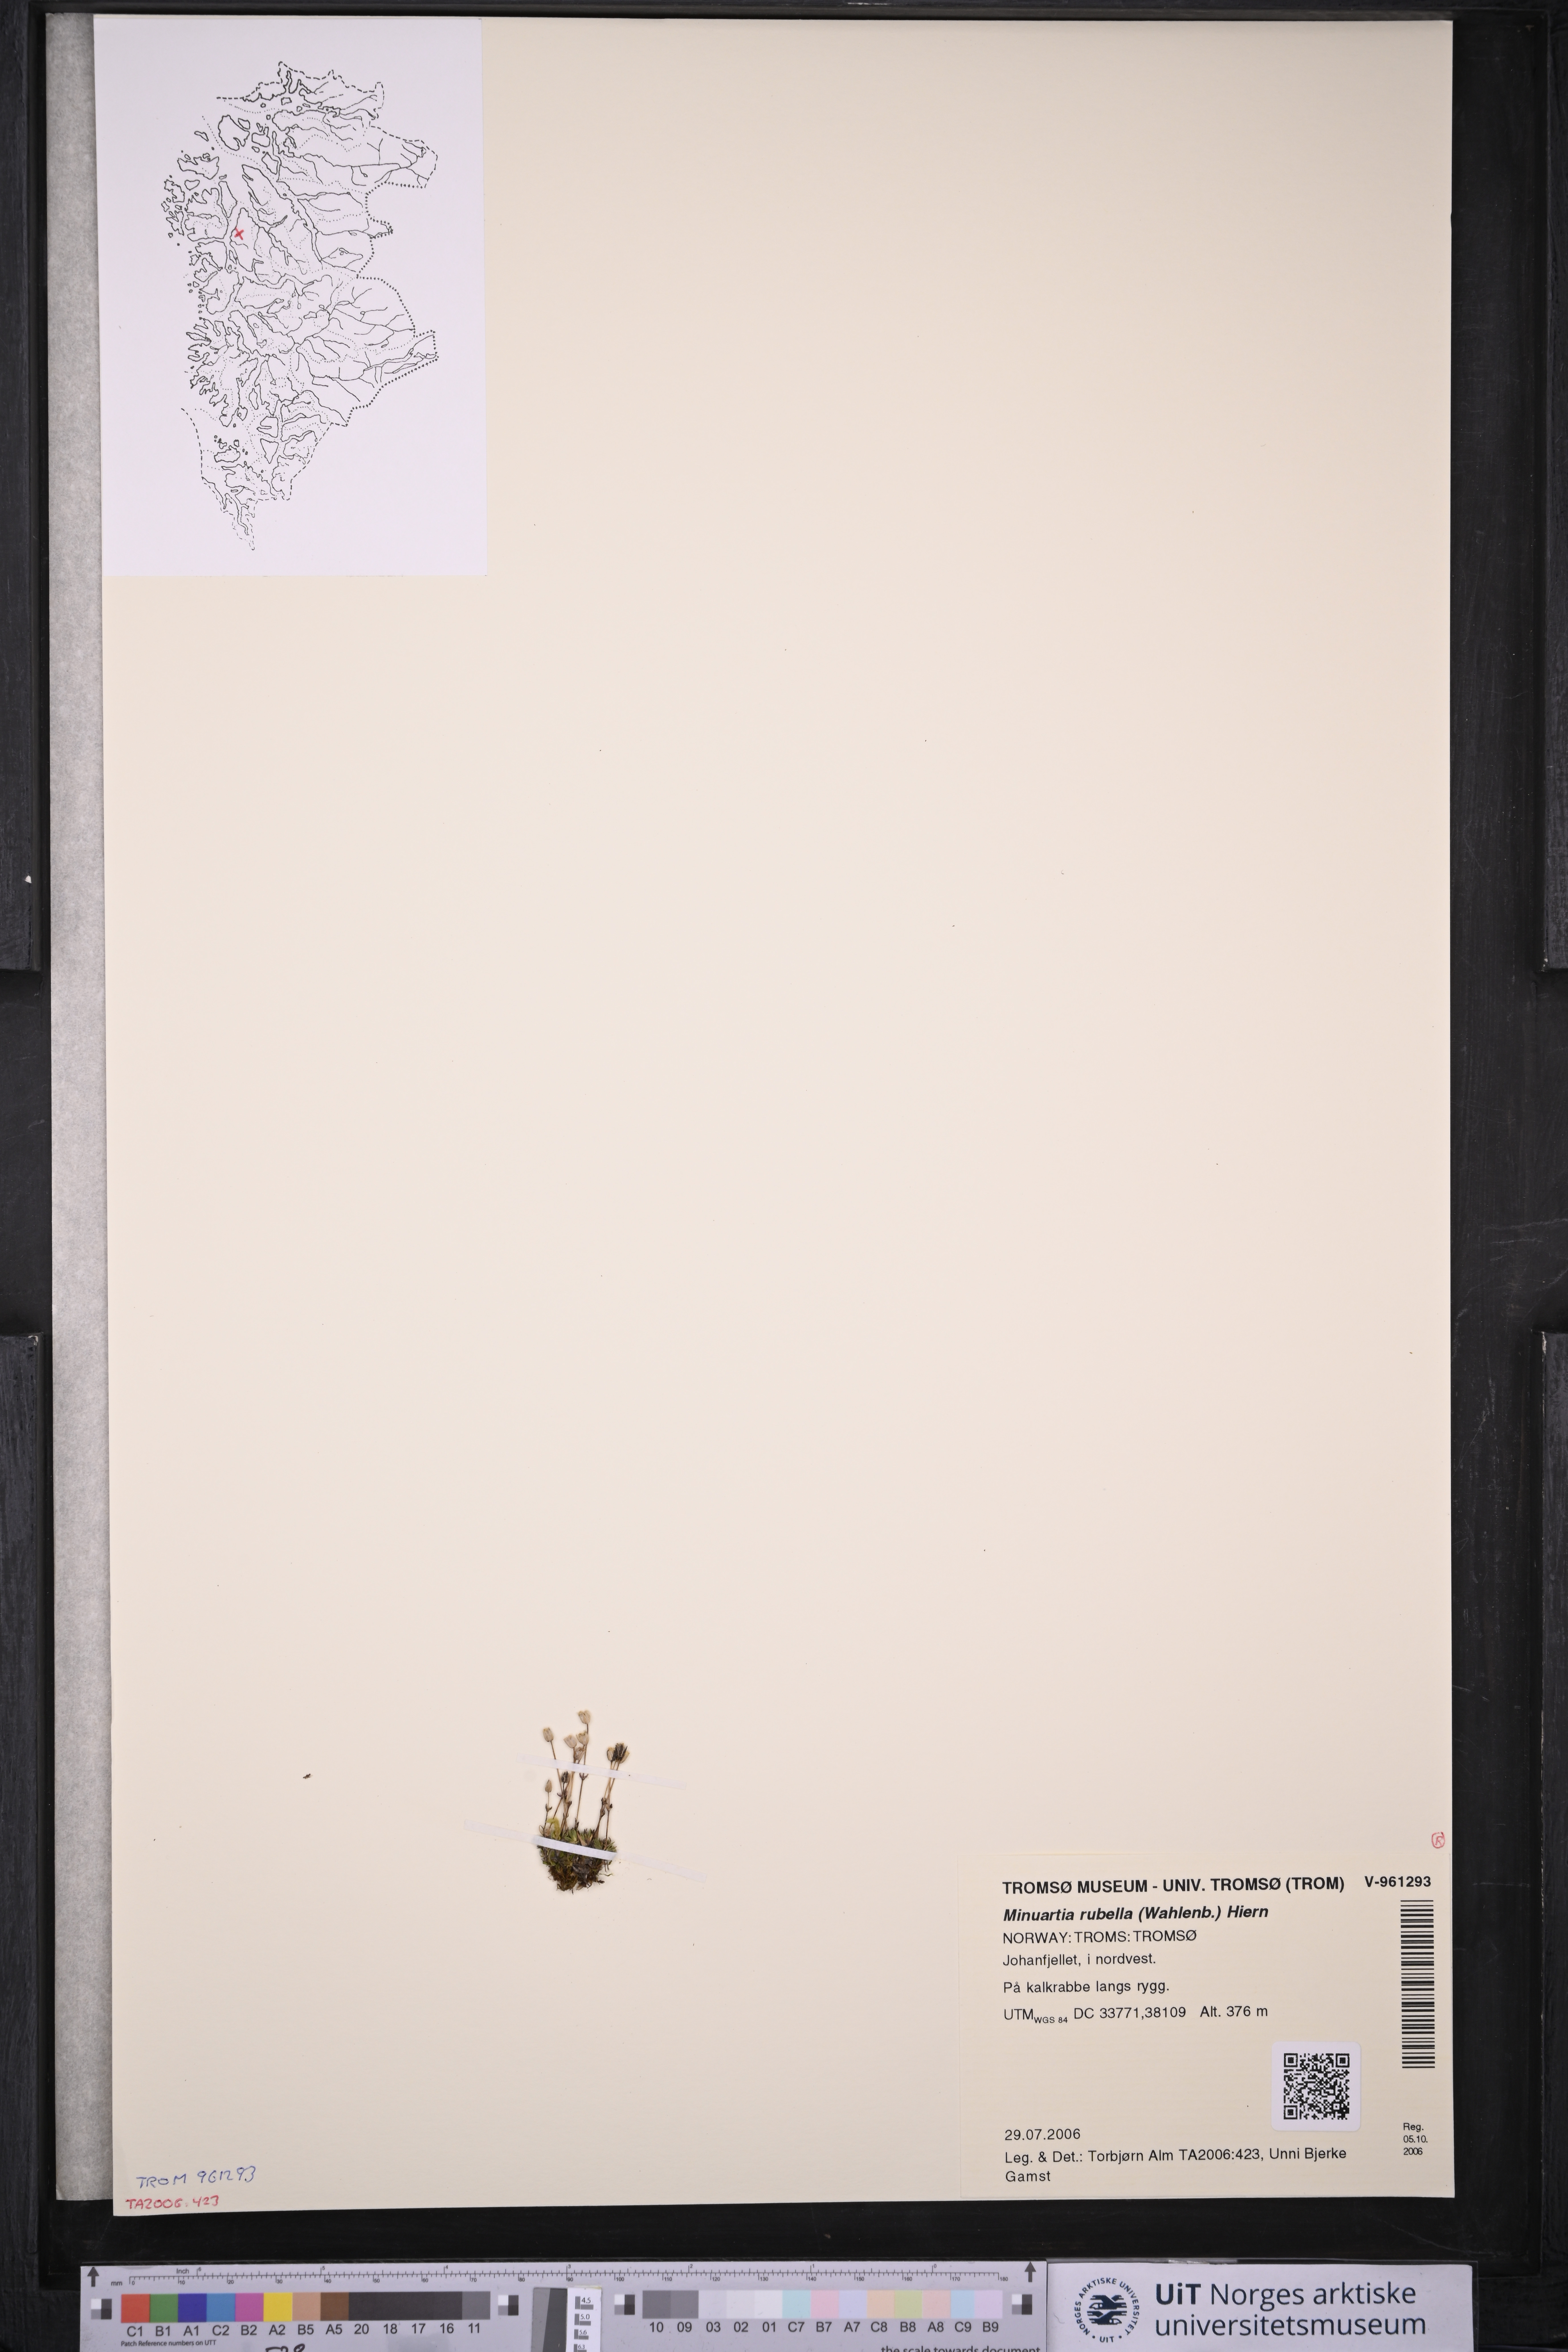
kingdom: Plantae
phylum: Tracheophyta
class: Magnoliopsida
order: Caryophyllales
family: Caryophyllaceae
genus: Sabulina
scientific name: Sabulina rubella
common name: Beautiful sandwort
